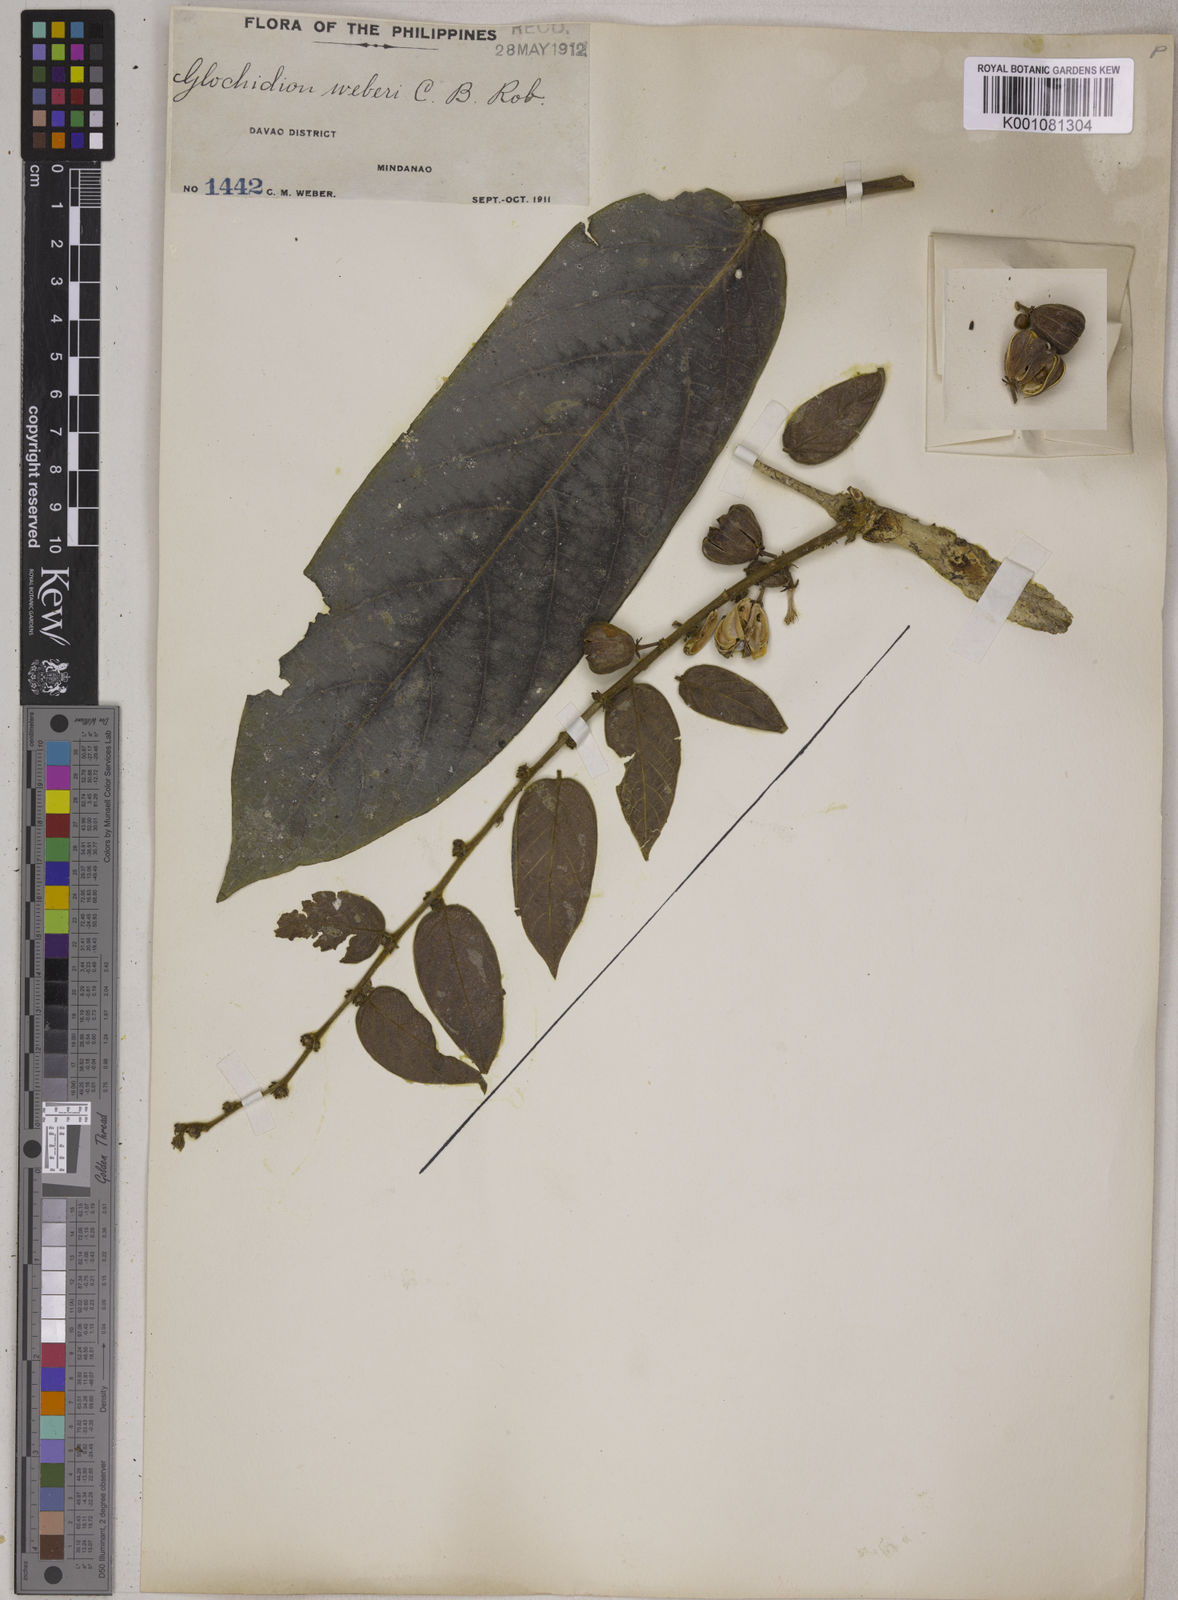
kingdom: Plantae
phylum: Tracheophyta
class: Magnoliopsida
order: Malpighiales
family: Phyllanthaceae
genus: Glochidion
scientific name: Glochidion weberi
